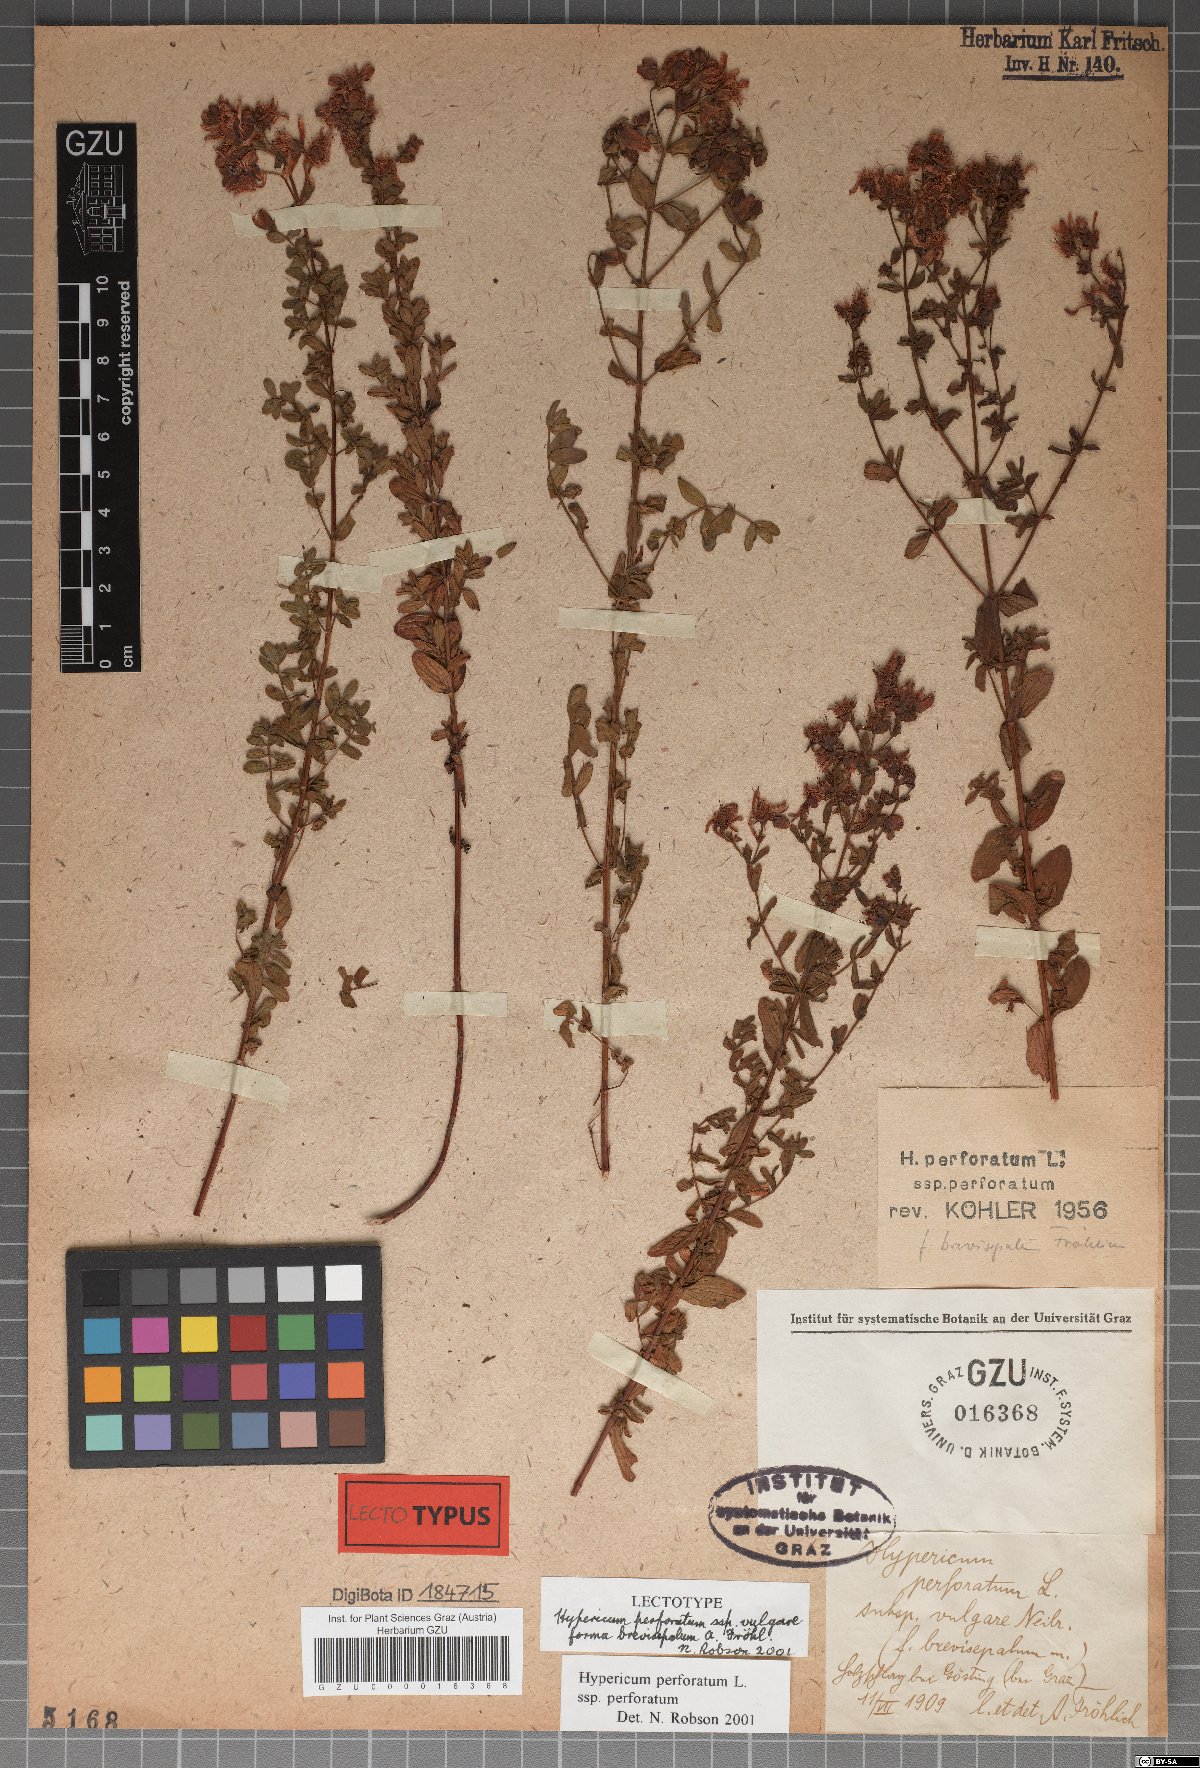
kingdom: Plantae
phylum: Tracheophyta
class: Magnoliopsida
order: Malpighiales
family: Hypericaceae
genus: Hypericum
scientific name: Hypericum perforatum
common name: Common st. johnswort
